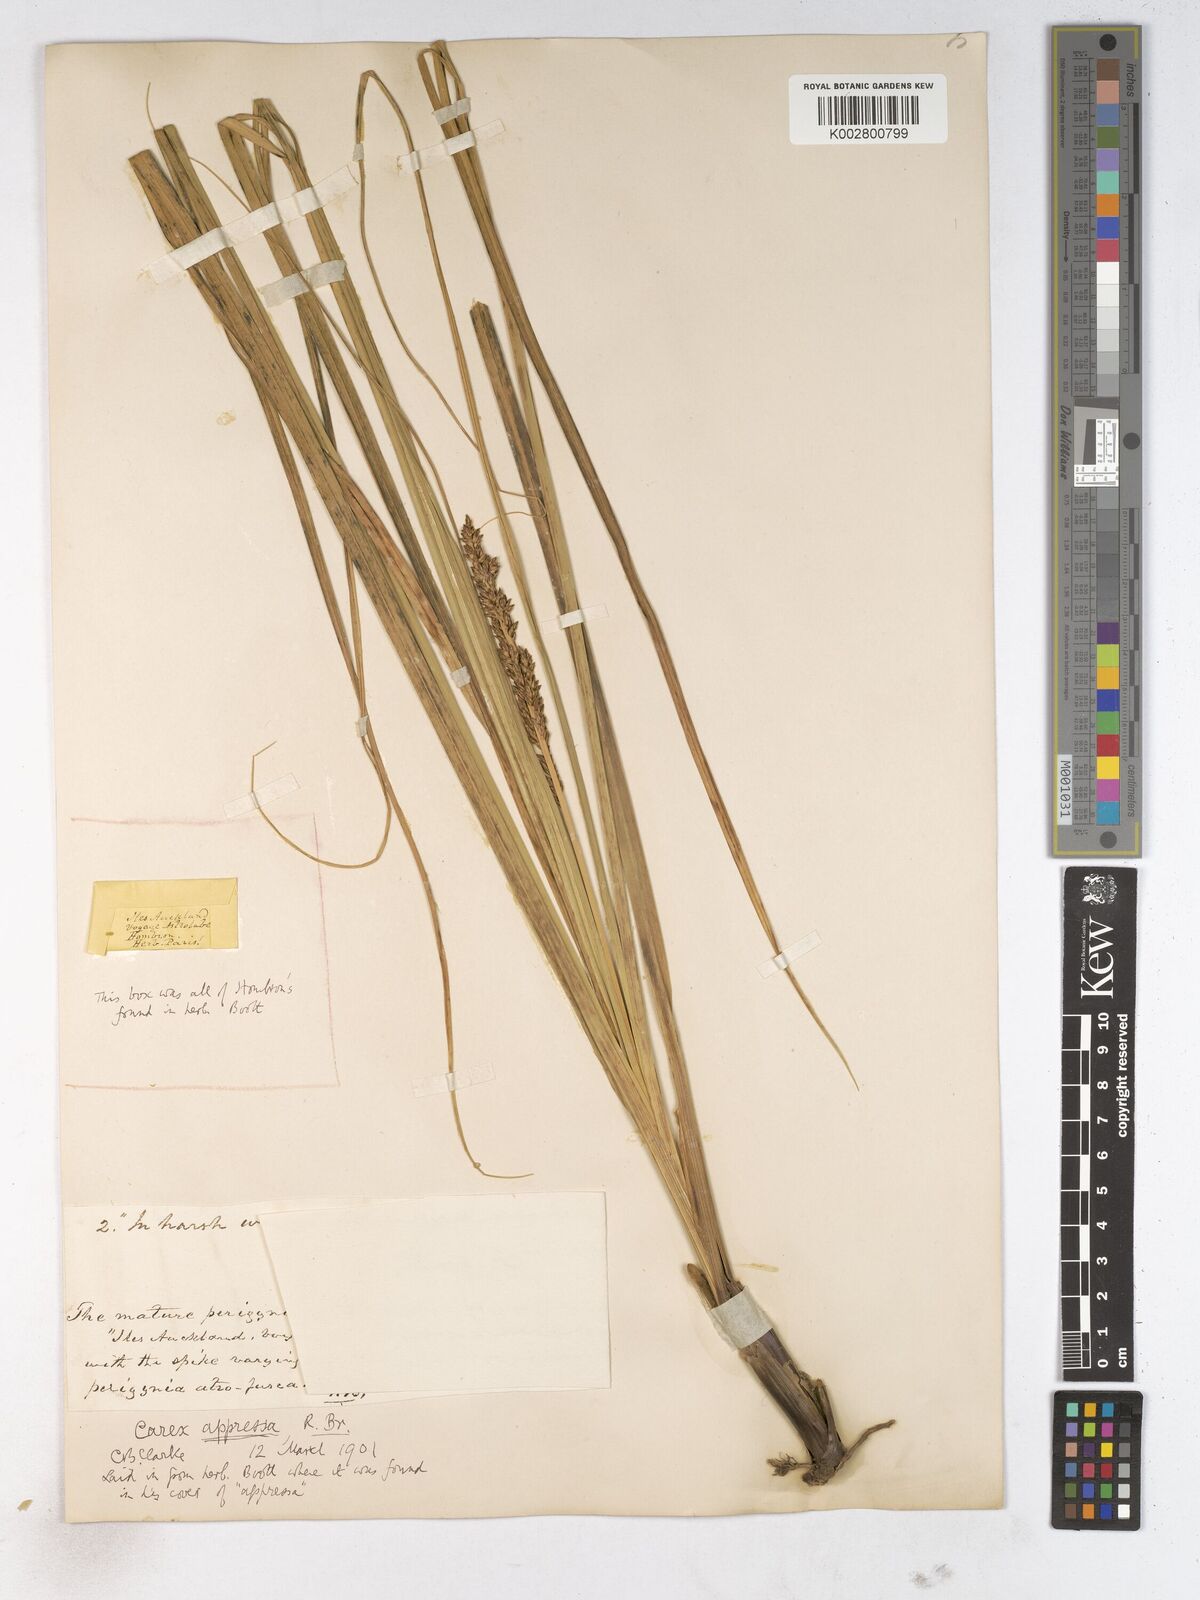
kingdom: Plantae
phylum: Tracheophyta
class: Liliopsida
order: Poales
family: Cyperaceae
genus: Carex
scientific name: Carex appressa
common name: Tussock sedge
